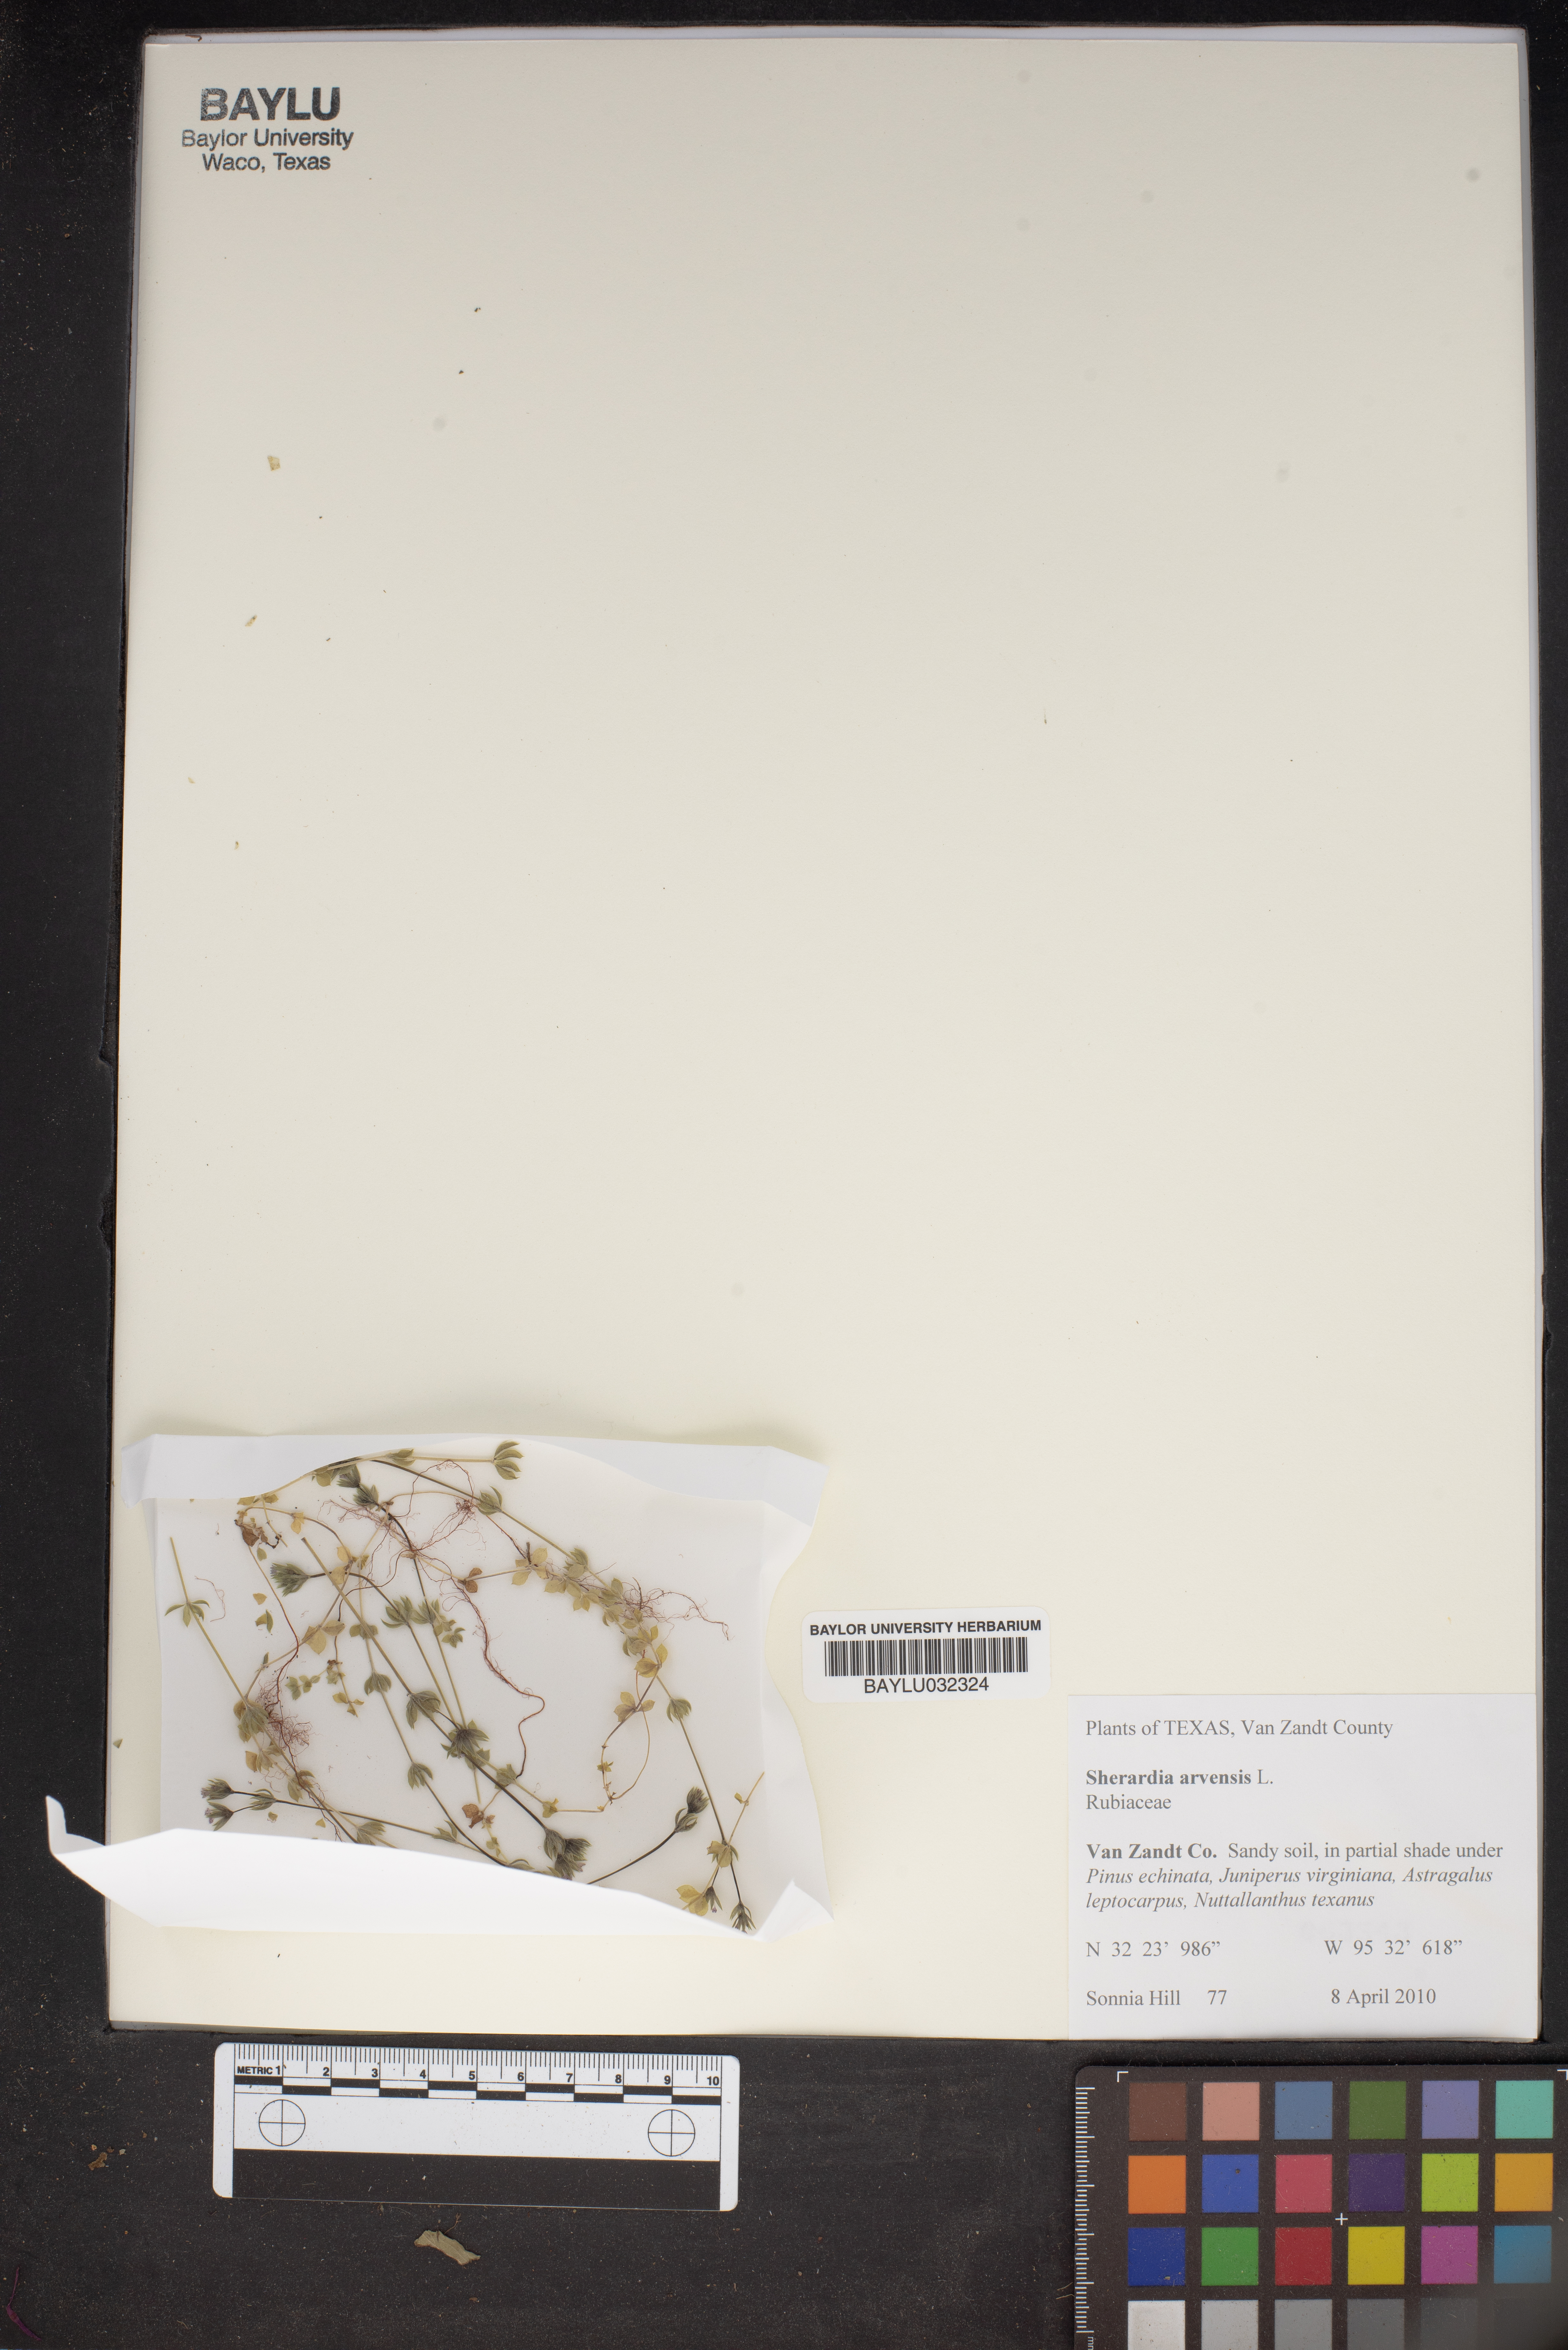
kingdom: Plantae
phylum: Tracheophyta
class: Magnoliopsida
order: Gentianales
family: Rubiaceae
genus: Sherardia
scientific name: Sherardia arvensis
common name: Field madder
